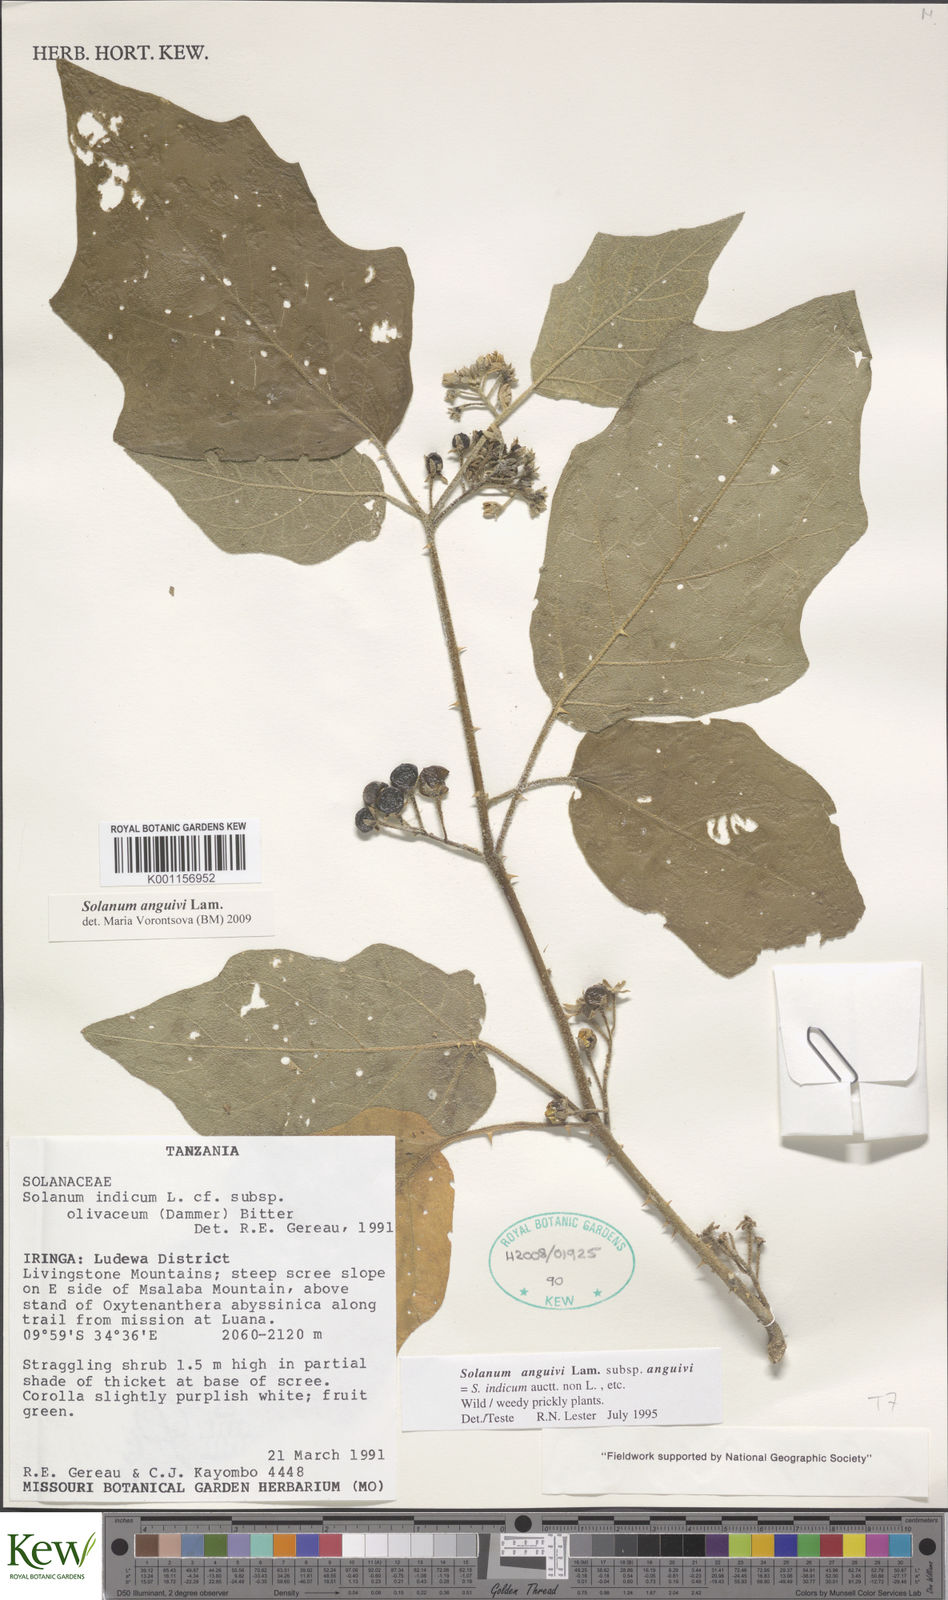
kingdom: Plantae
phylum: Tracheophyta
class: Magnoliopsida
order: Solanales
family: Solanaceae
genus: Solanum
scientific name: Solanum anguivi
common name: Forest bitterberry
